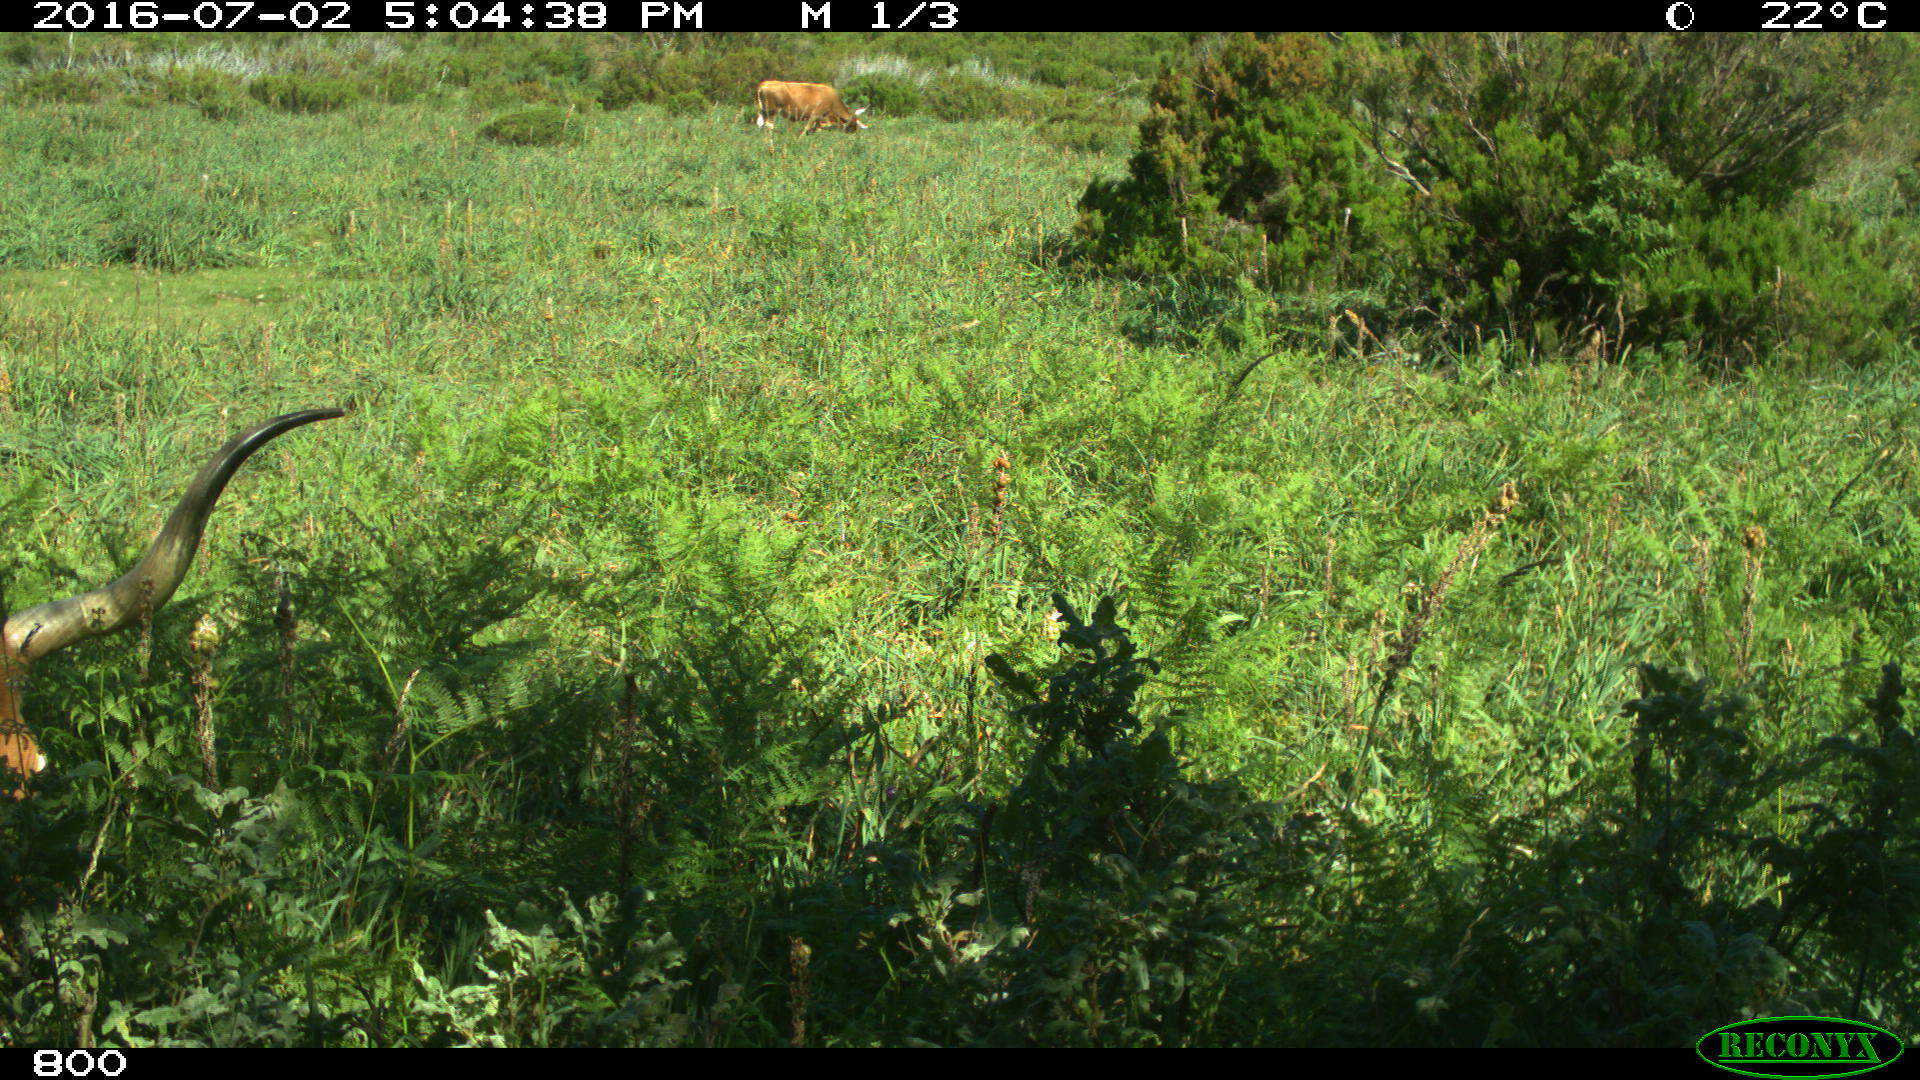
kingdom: Animalia
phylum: Chordata
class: Mammalia
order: Artiodactyla
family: Bovidae
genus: Bos
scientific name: Bos taurus
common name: Domesticated cattle
